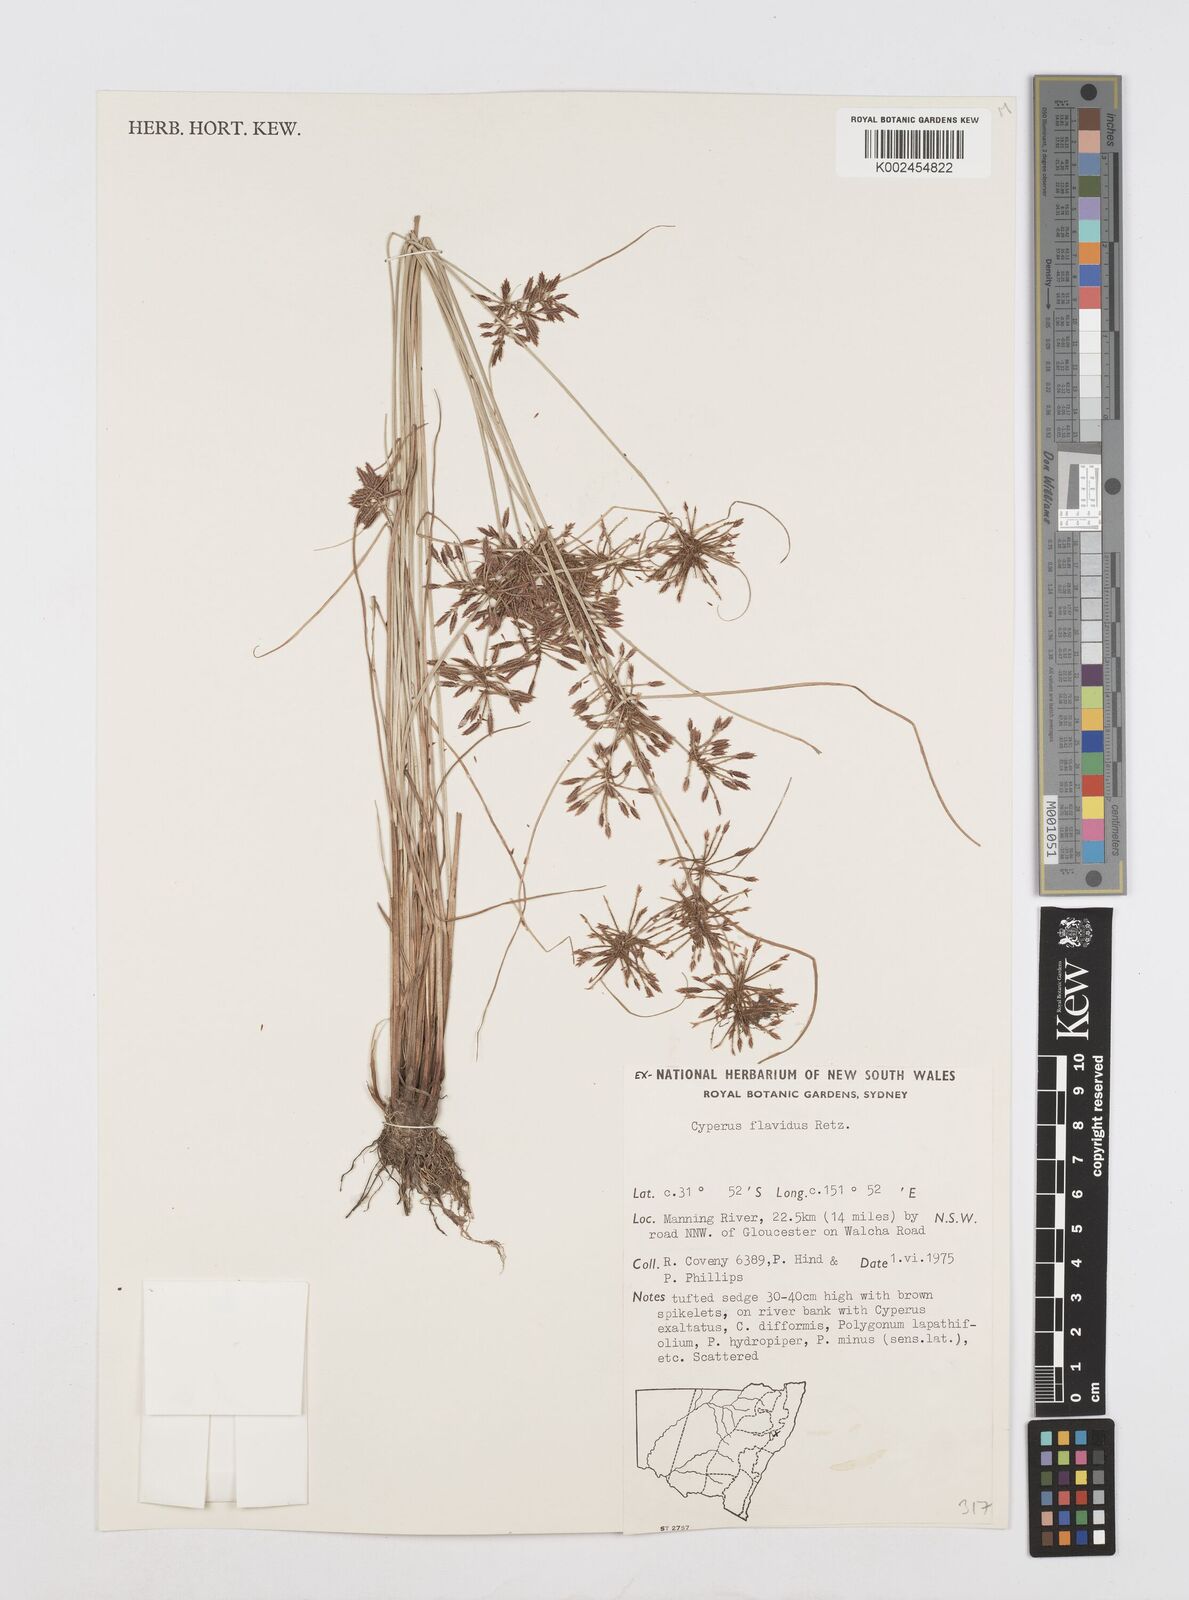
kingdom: Plantae
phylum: Tracheophyta
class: Liliopsida
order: Poales
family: Cyperaceae
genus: Cyperus
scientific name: Cyperus flavidus
